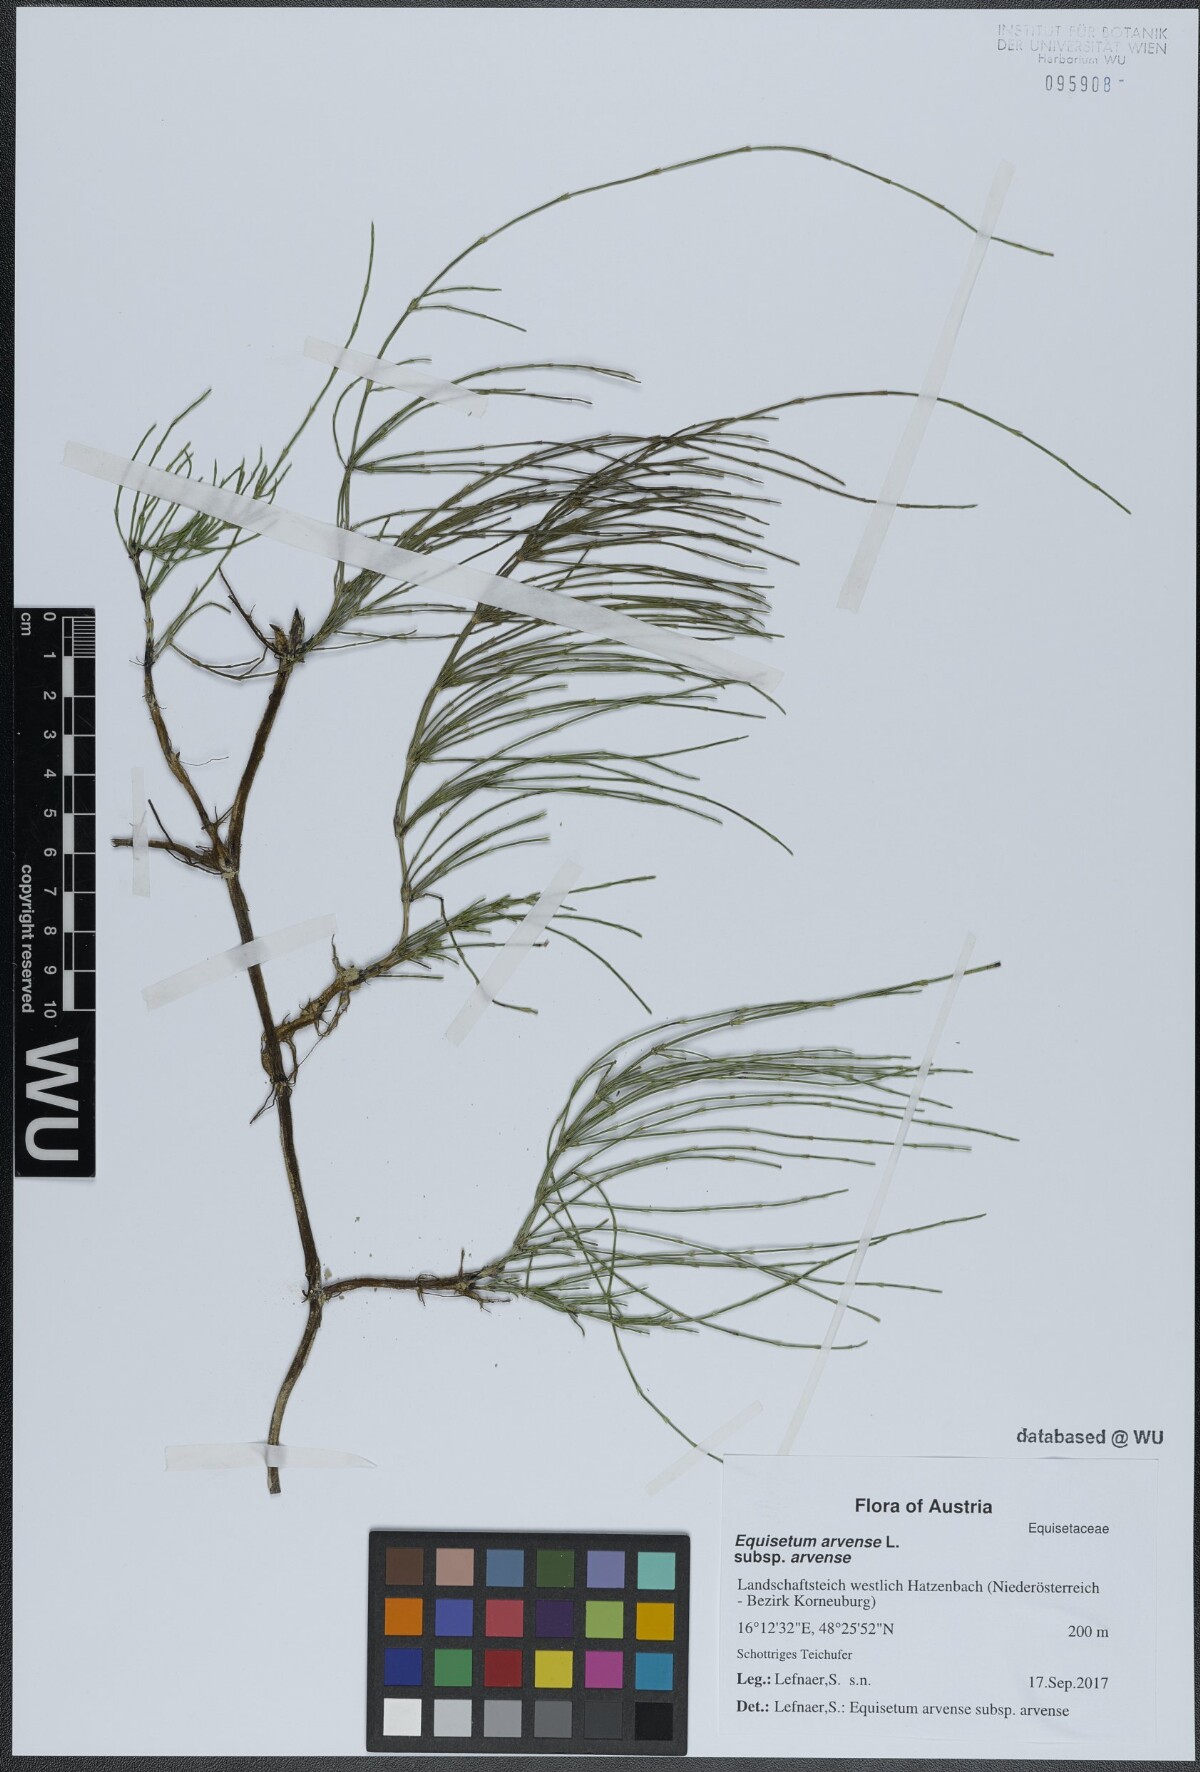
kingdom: Plantae
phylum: Tracheophyta
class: Polypodiopsida
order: Equisetales
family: Equisetaceae
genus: Equisetum
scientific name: Equisetum arvense
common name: Field horsetail
